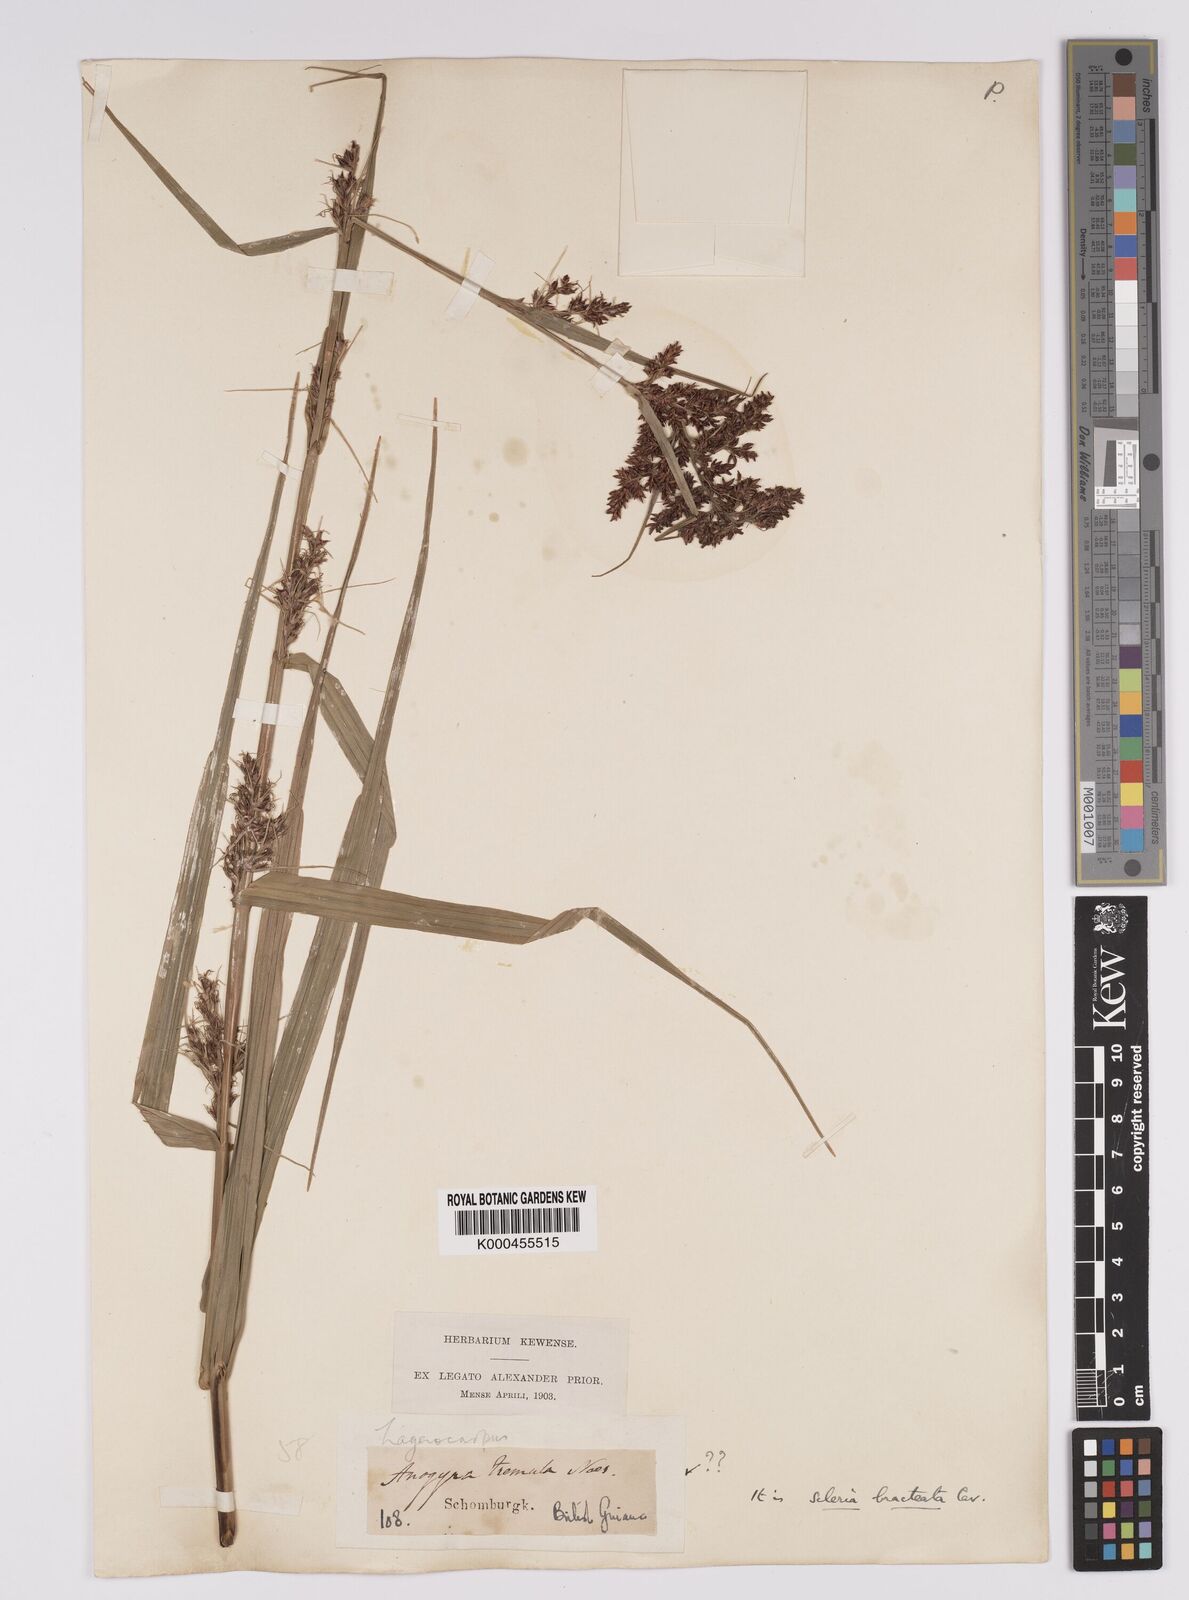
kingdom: Plantae
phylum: Tracheophyta
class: Liliopsida
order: Poales
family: Cyperaceae
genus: Scleria
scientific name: Scleria bracteata
